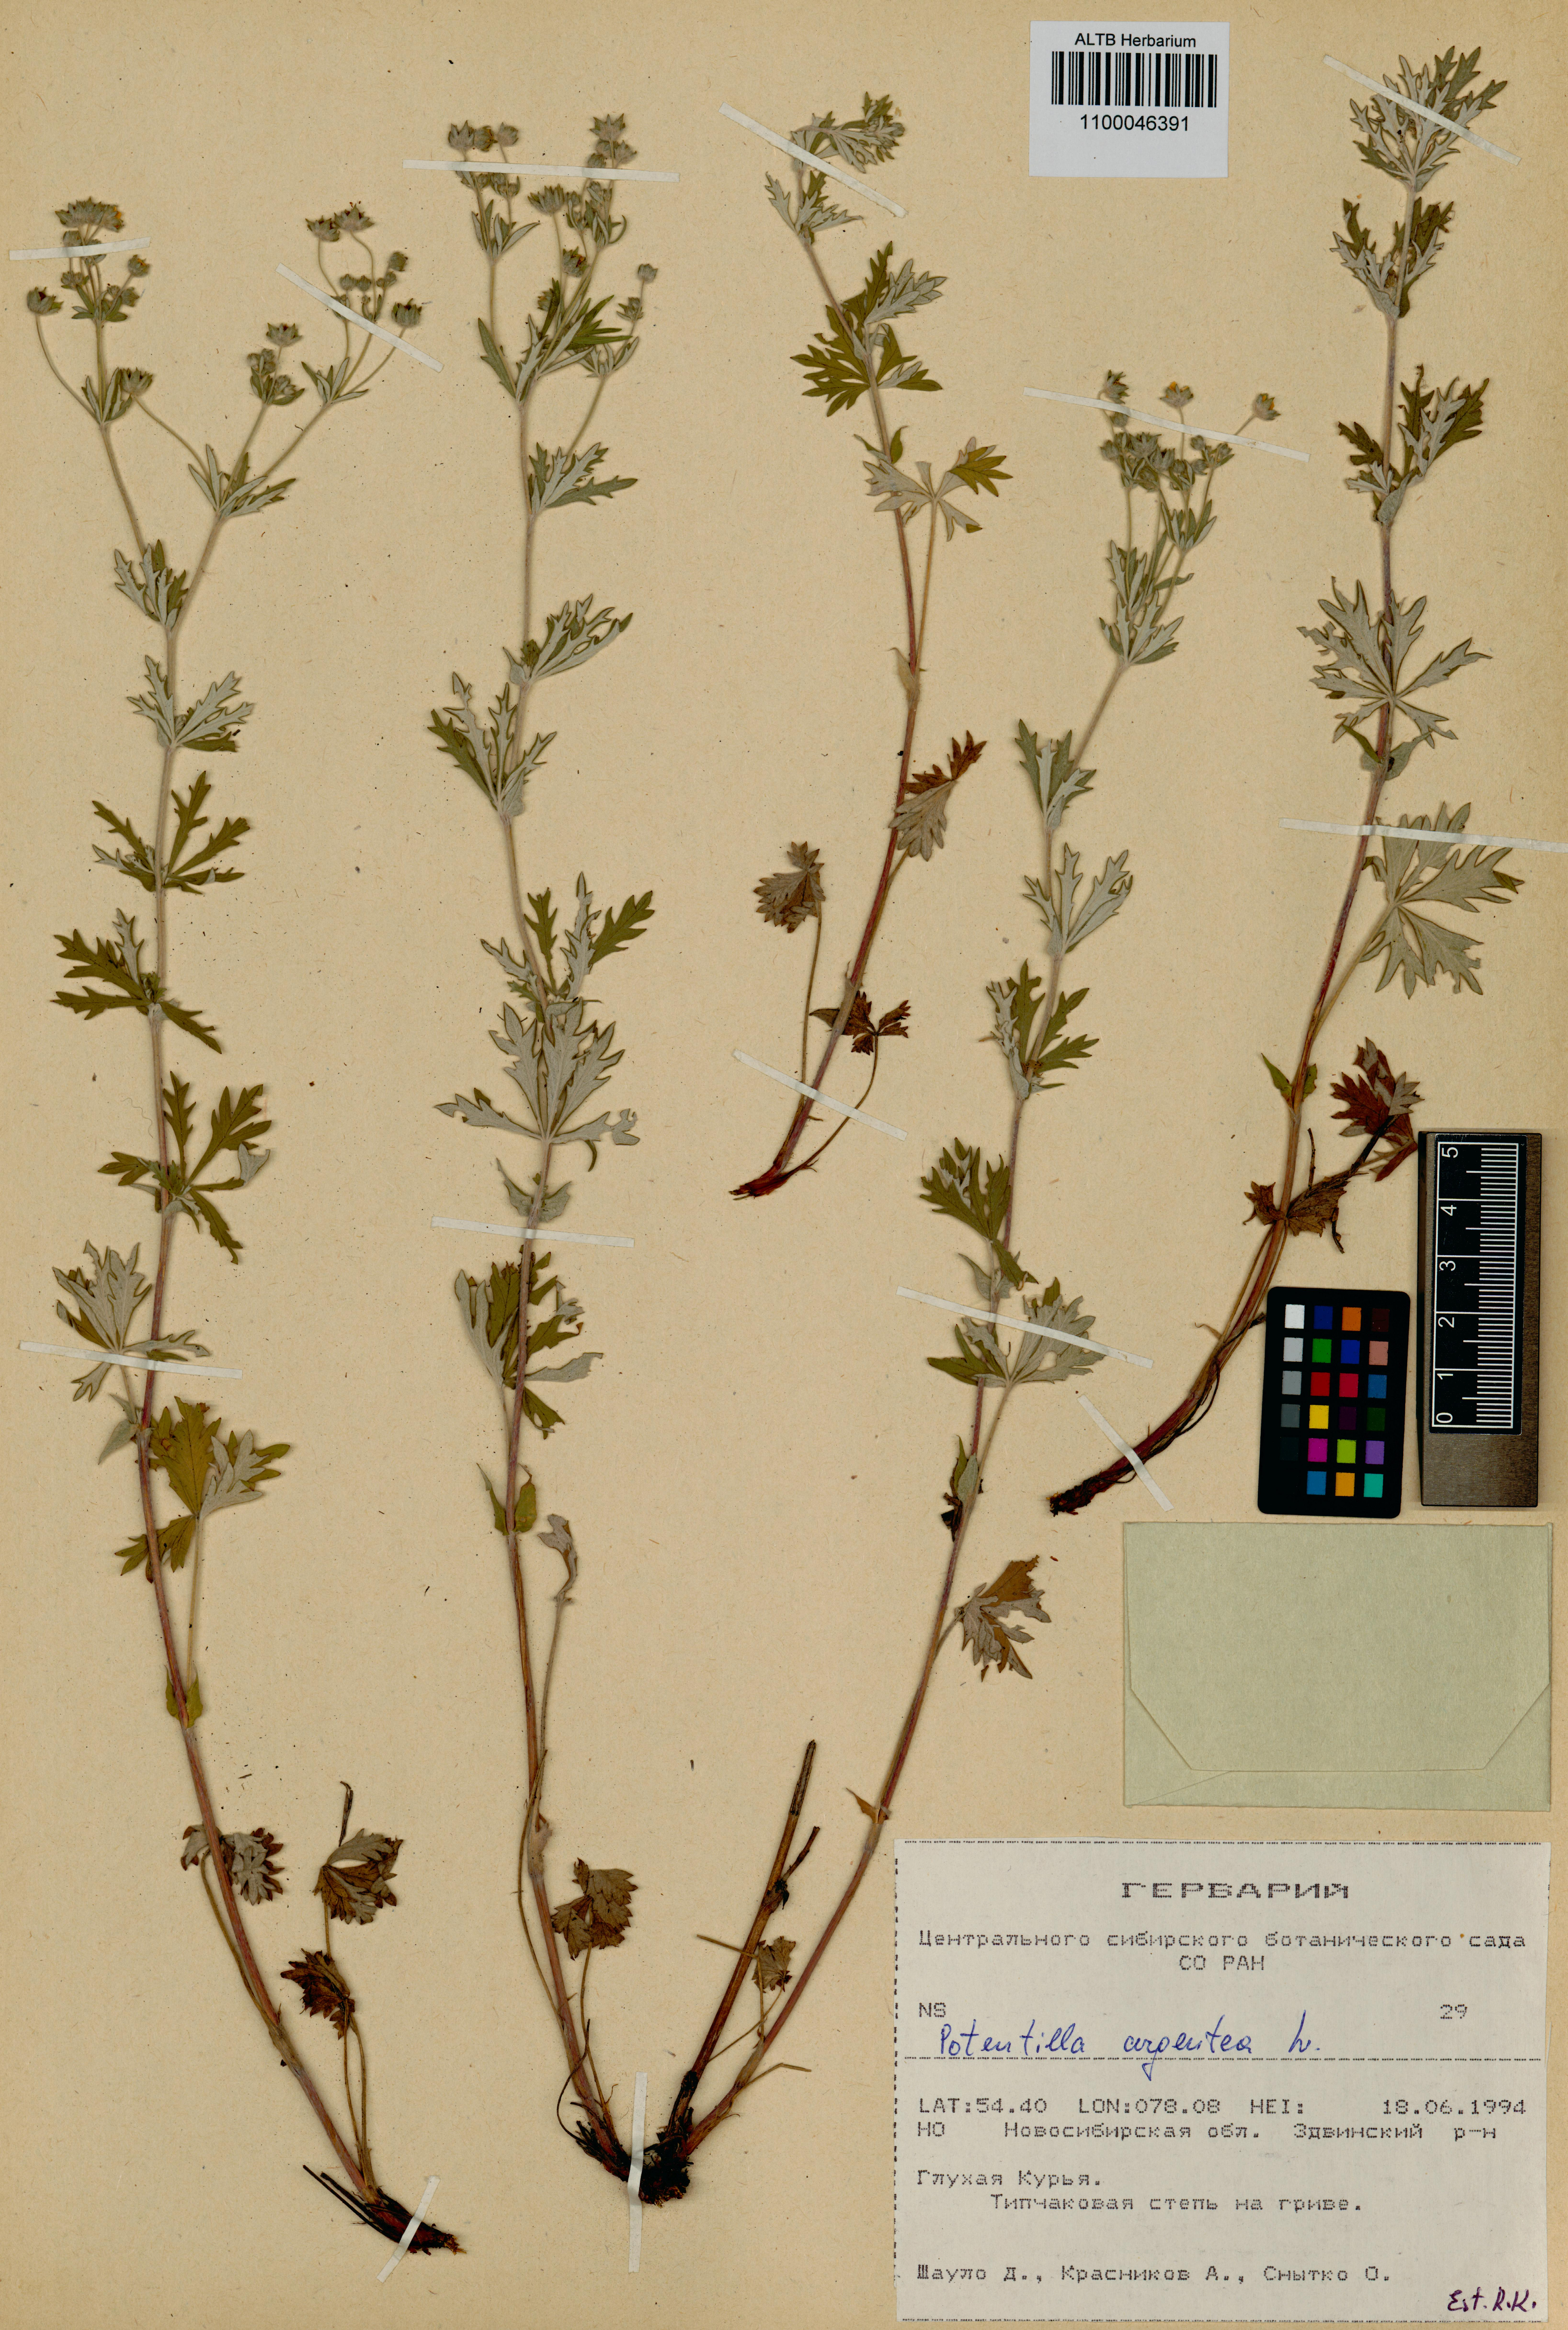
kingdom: Plantae
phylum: Tracheophyta
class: Magnoliopsida
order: Rosales
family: Rosaceae
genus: Potentilla
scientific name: Potentilla argentea
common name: Hoary cinquefoil
